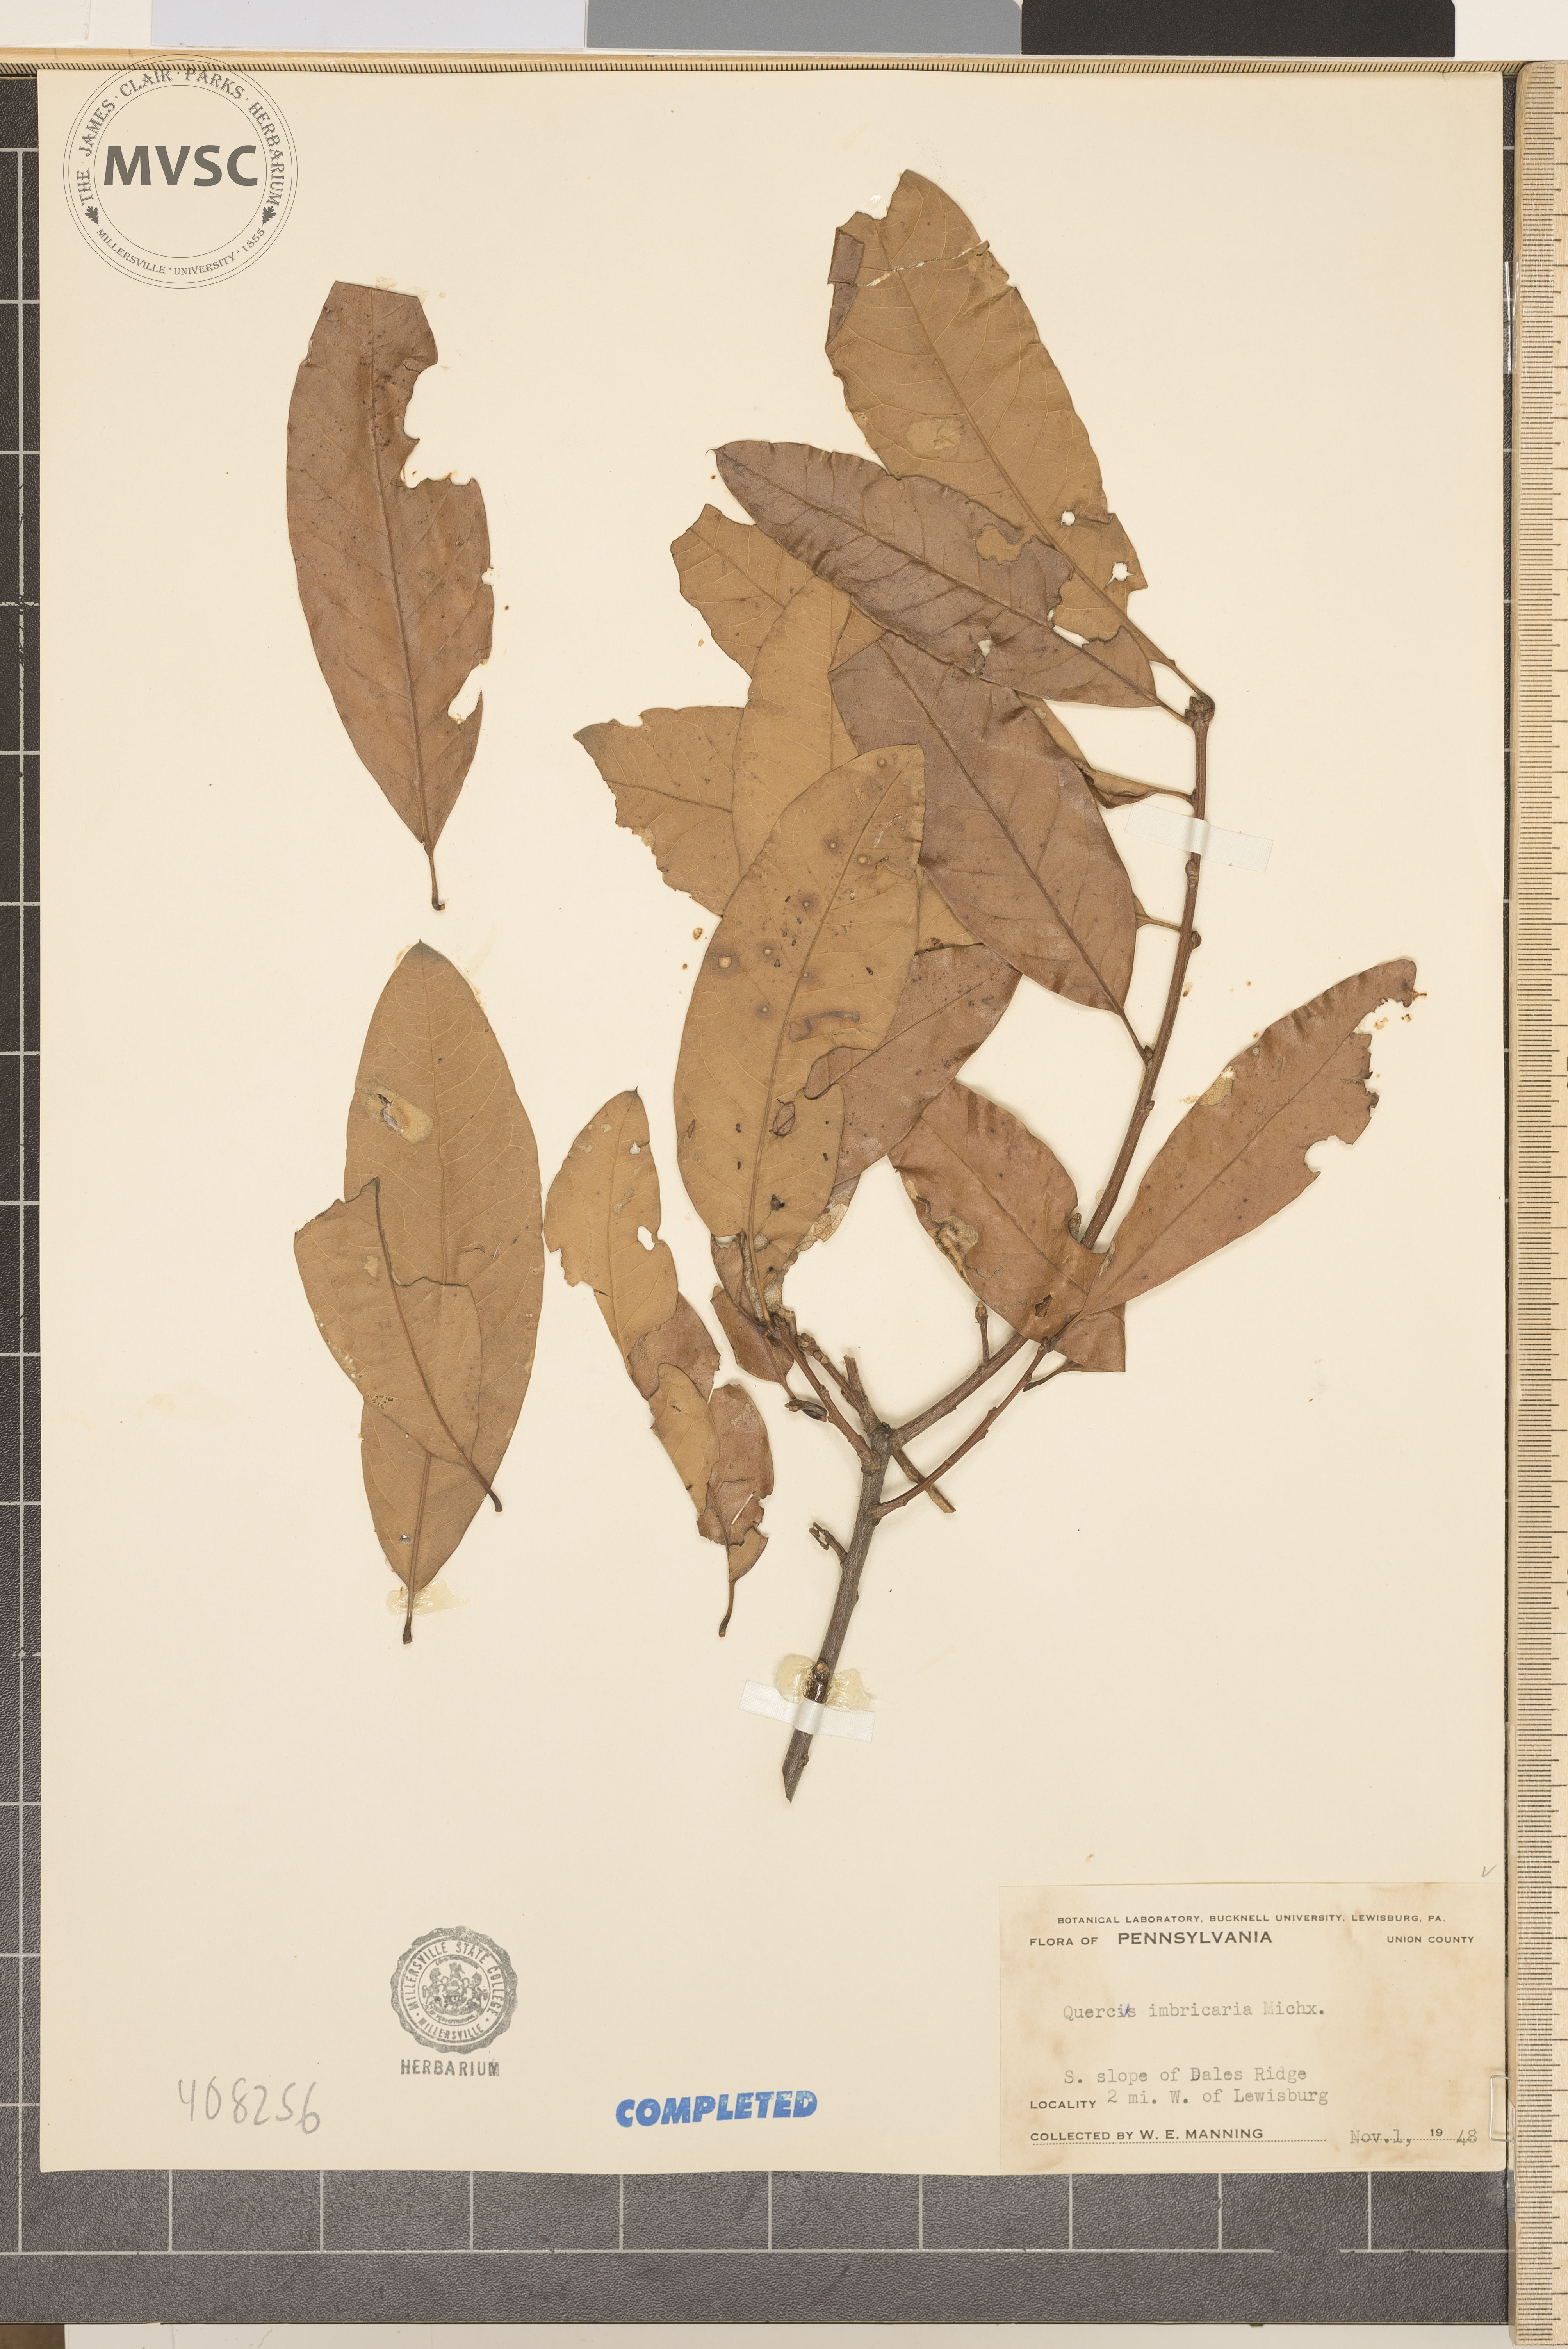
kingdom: Plantae
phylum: Tracheophyta
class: Magnoliopsida
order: Fagales
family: Fagaceae
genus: Quercus
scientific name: Quercus imbricaria
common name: Shingle oak
